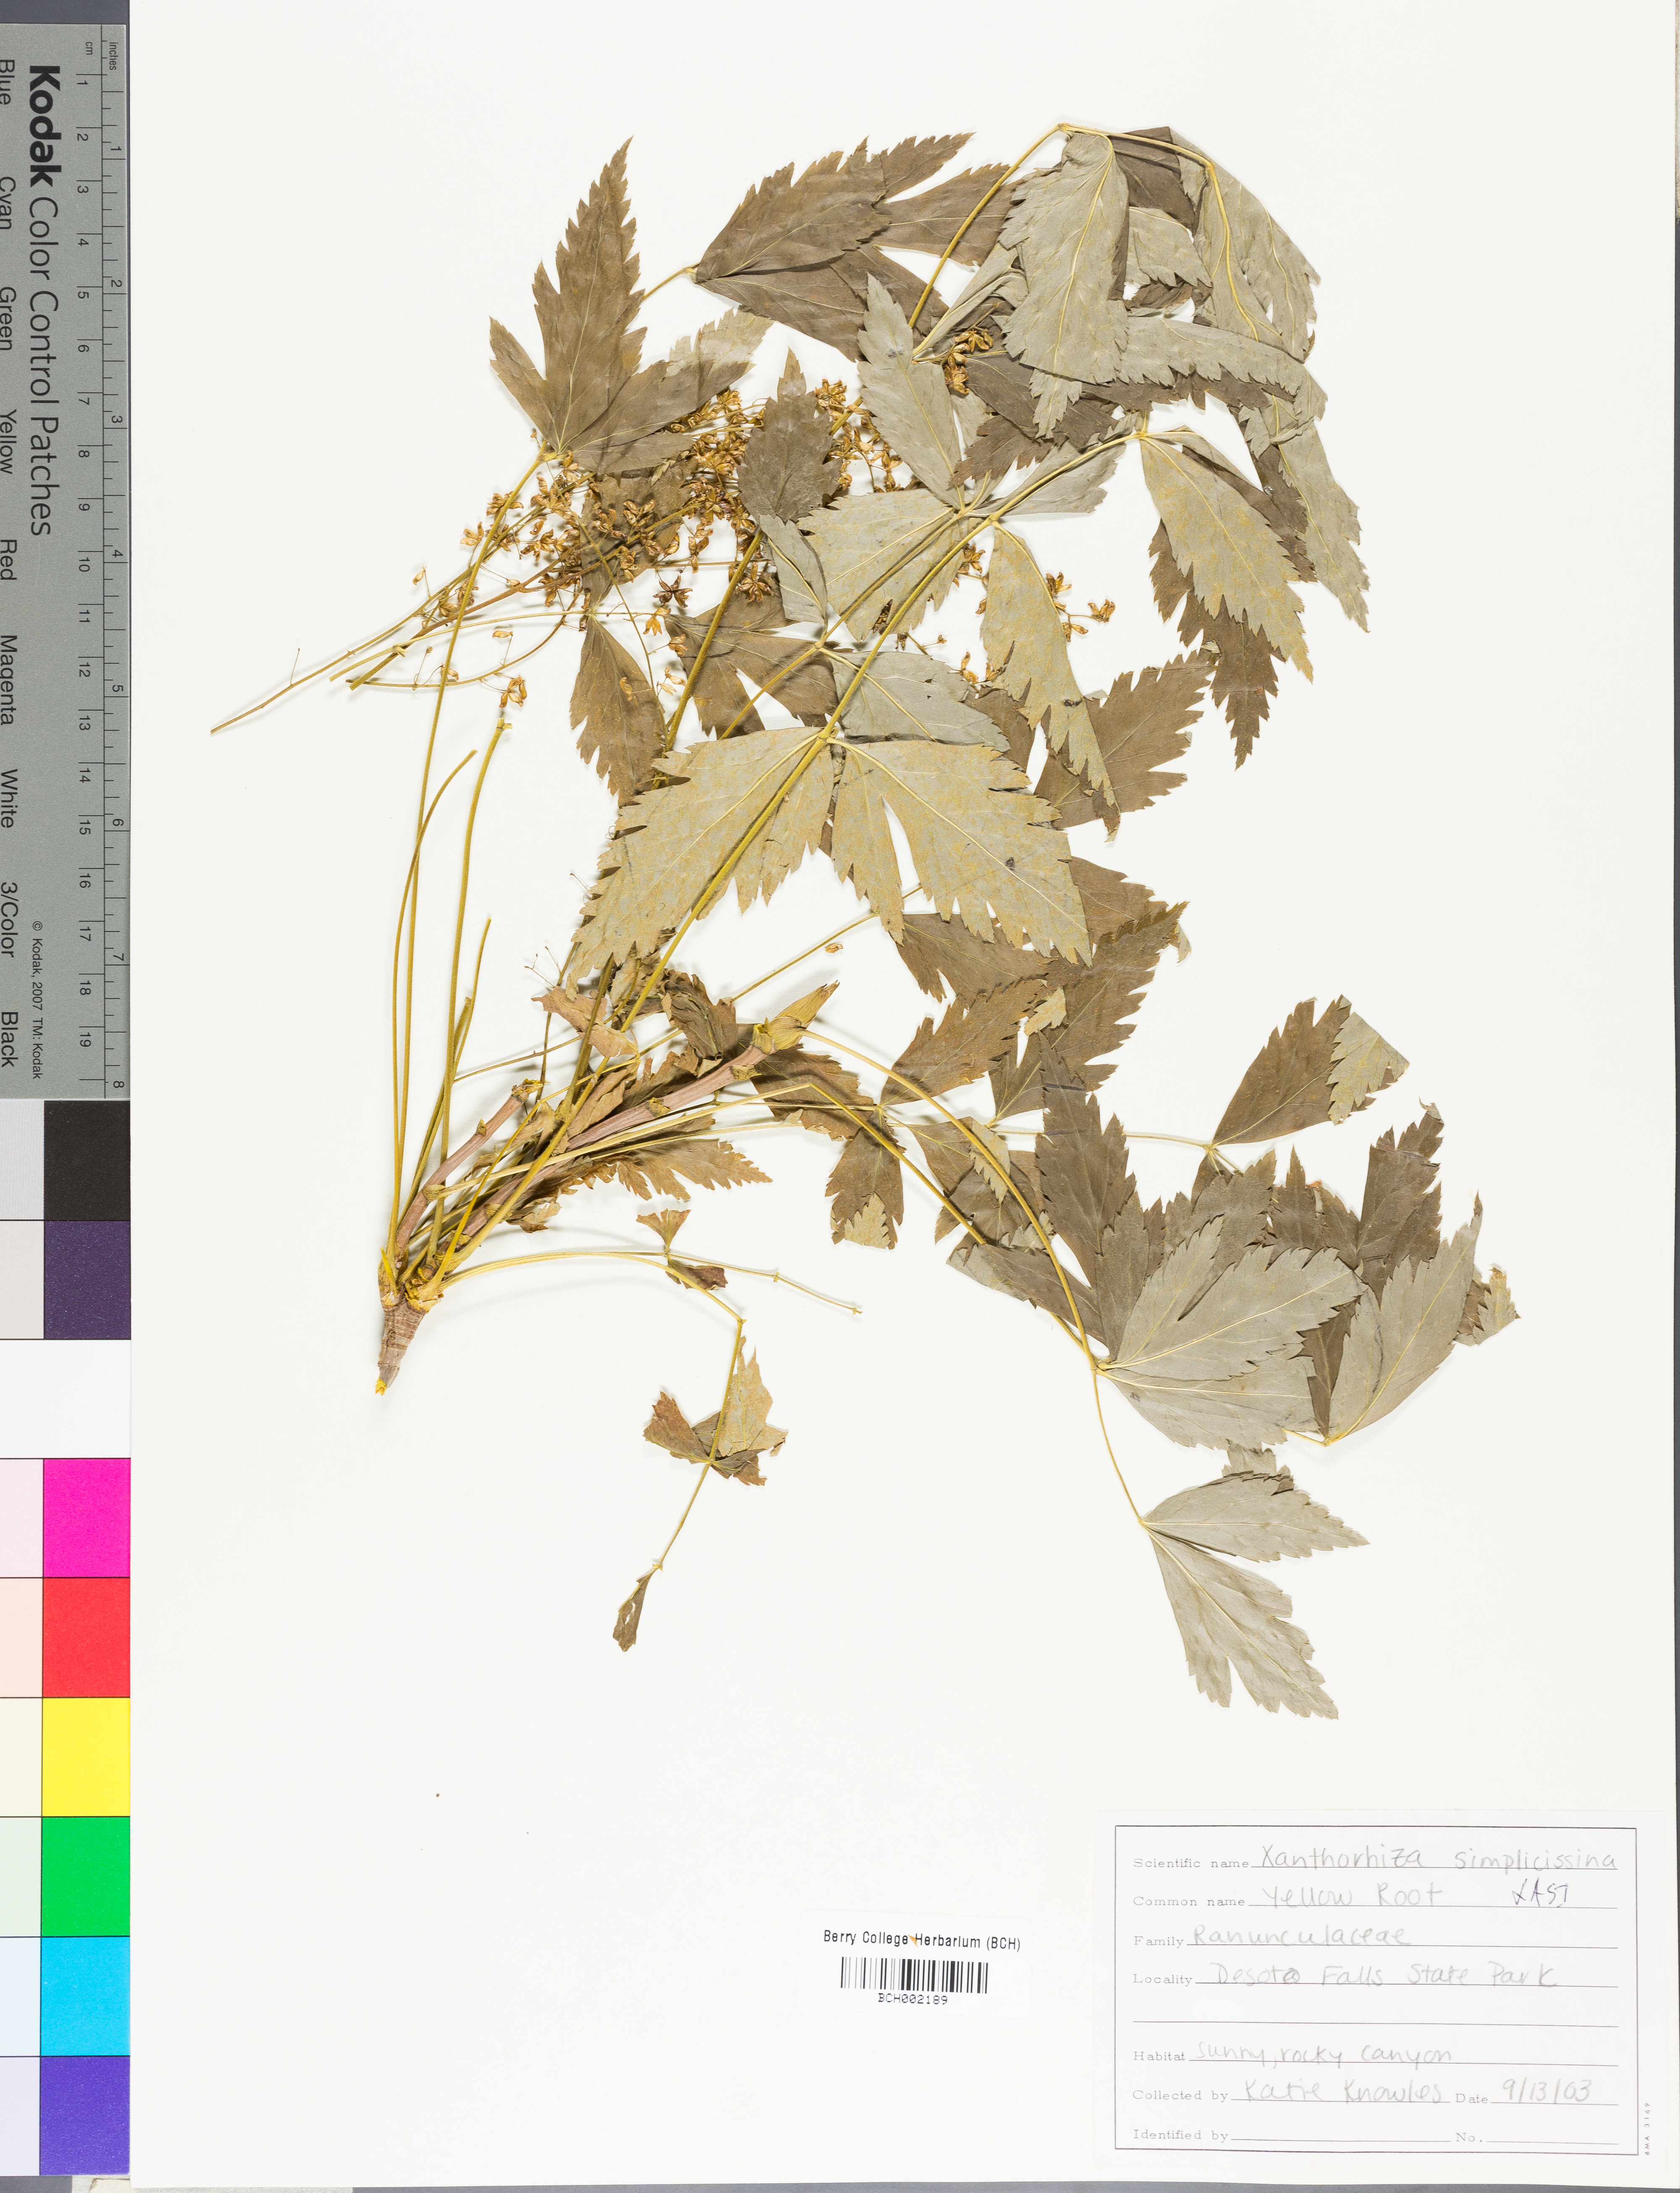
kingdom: Plantae
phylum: Tracheophyta
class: Magnoliopsida
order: Ranunculales
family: Ranunculaceae
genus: Xanthorhiza
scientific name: Xanthorhiza simplicissima
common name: Yellowroot
